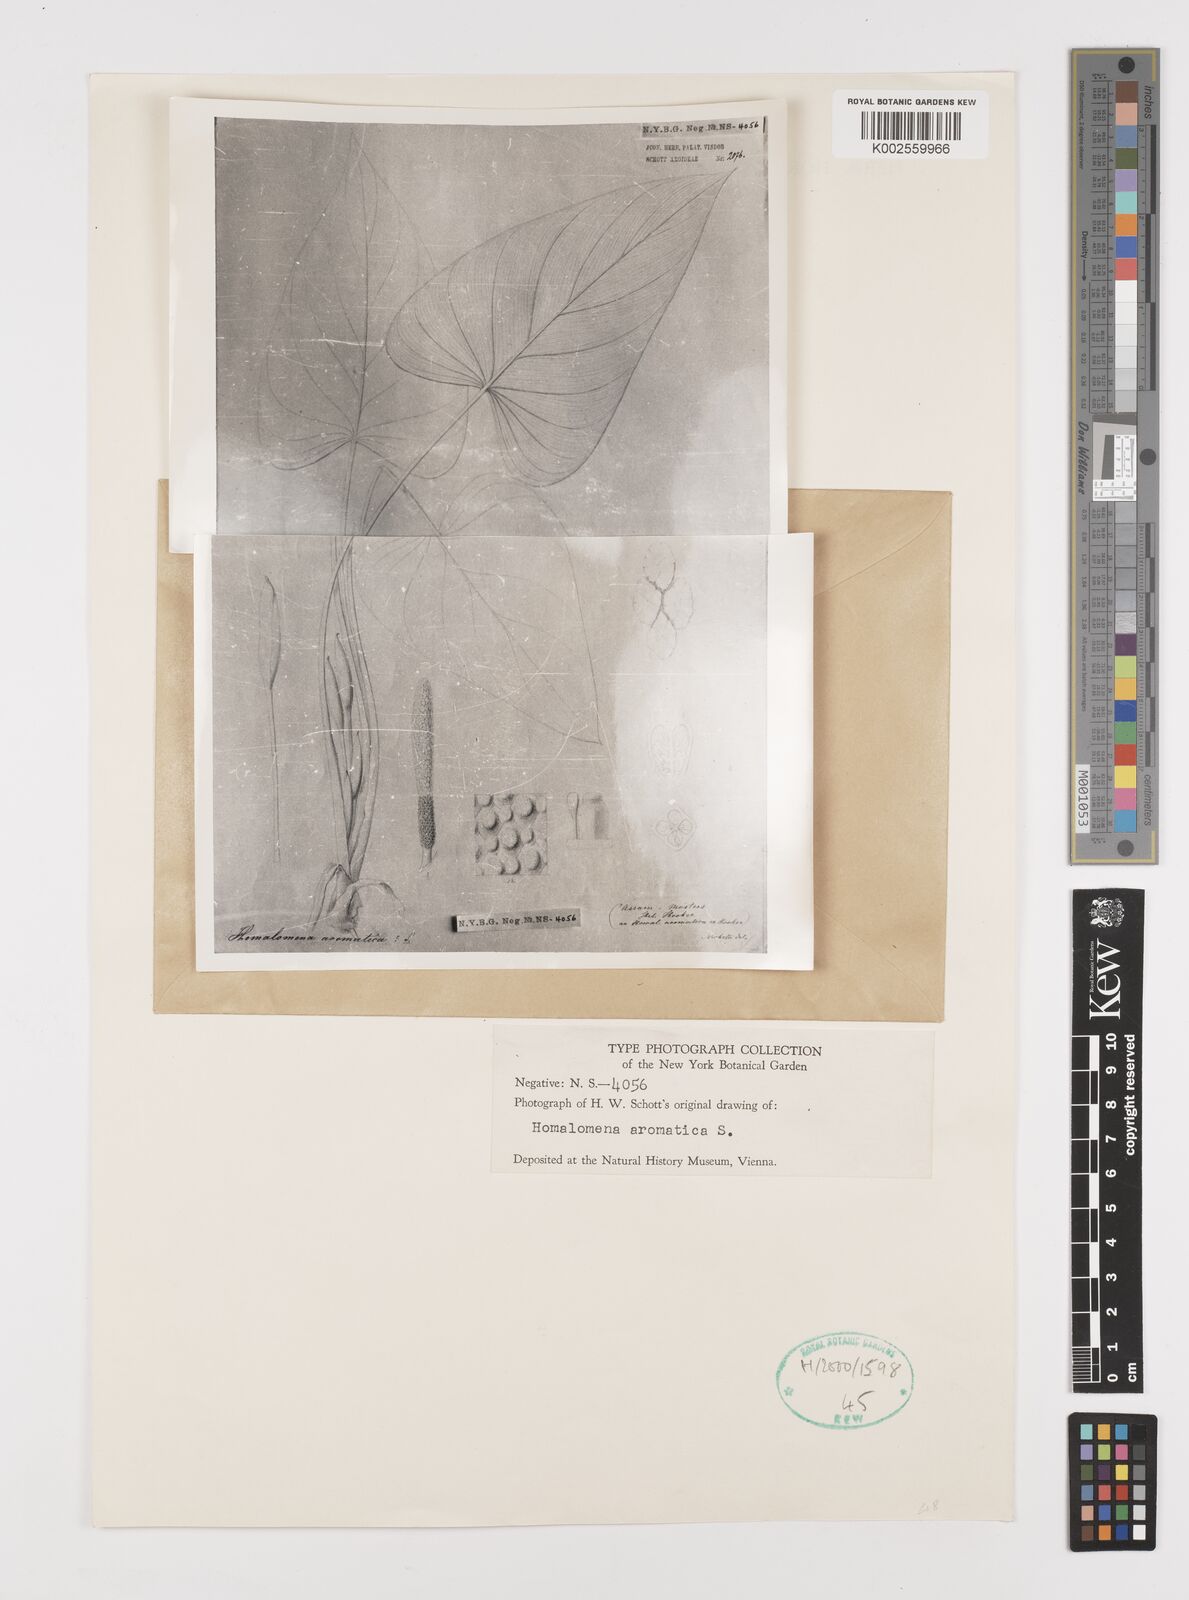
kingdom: Plantae
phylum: Tracheophyta
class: Liliopsida
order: Alismatales
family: Araceae
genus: Homalomena
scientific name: Homalomena aromatica
